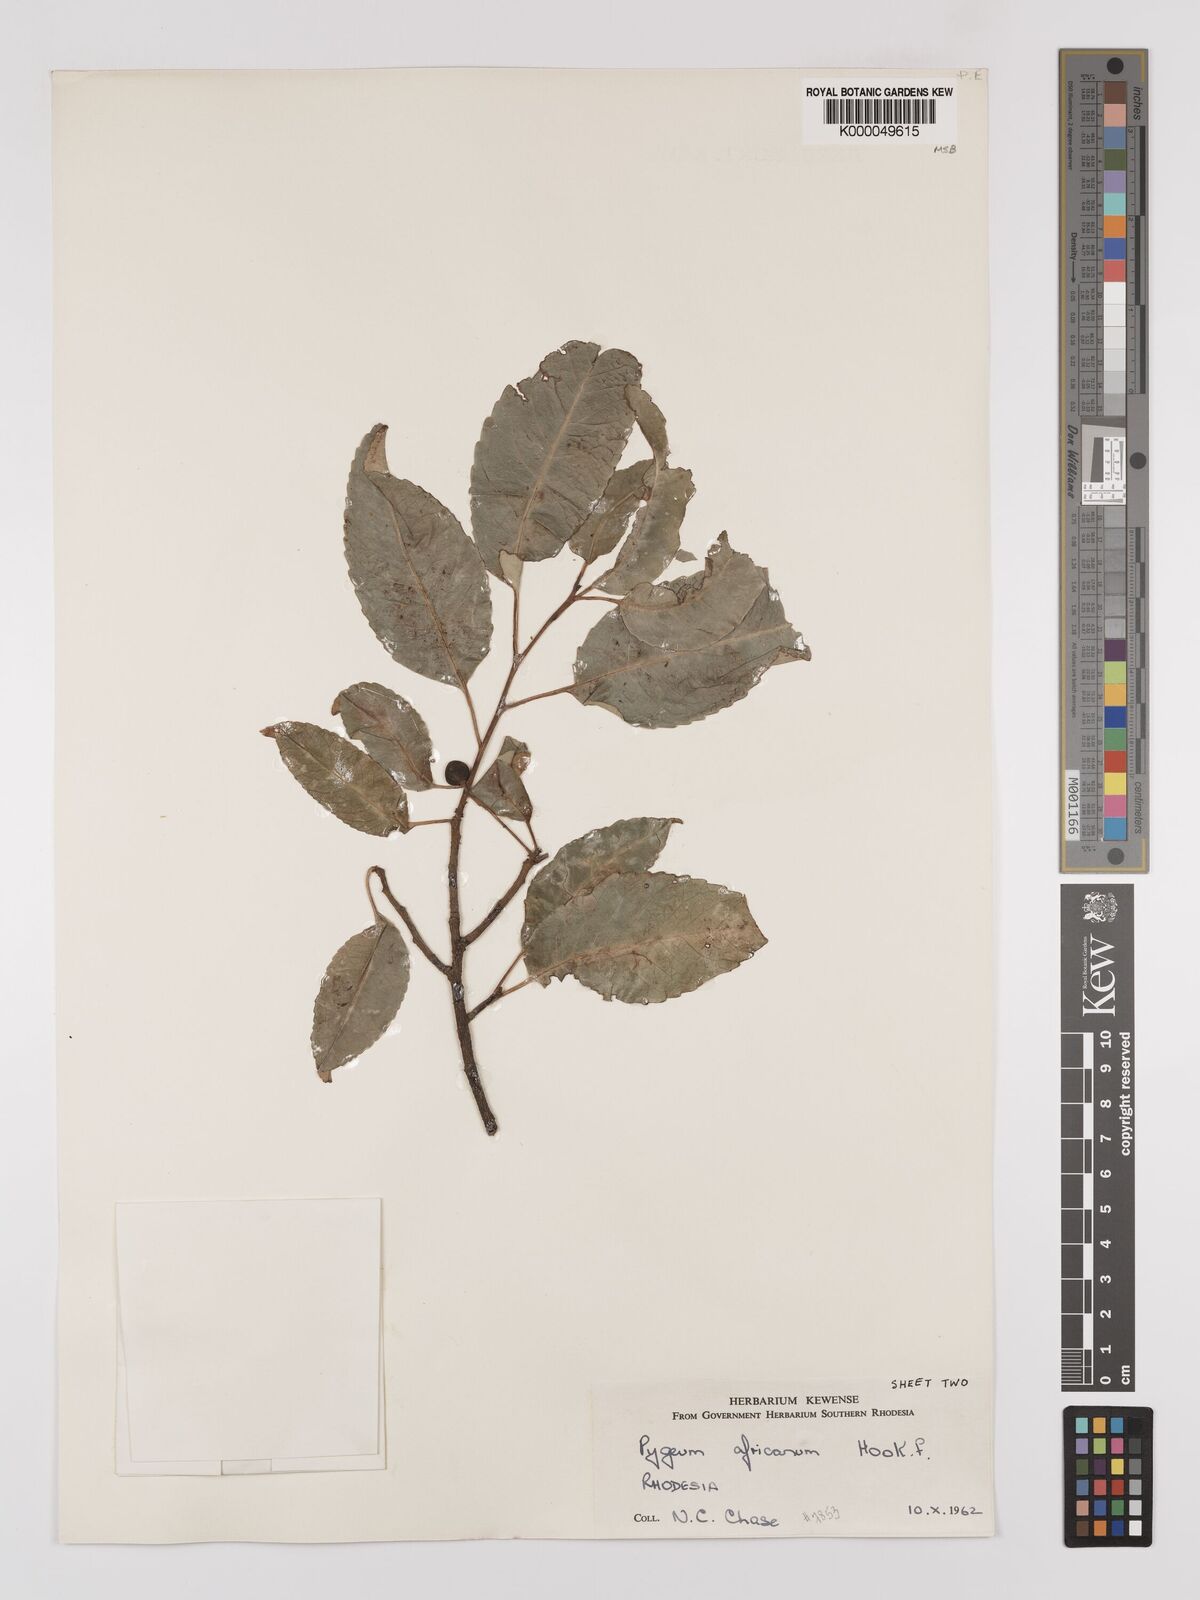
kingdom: Plantae
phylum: Tracheophyta
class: Magnoliopsida
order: Rosales
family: Rosaceae
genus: Prunus
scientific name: Prunus africana
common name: African cherry
